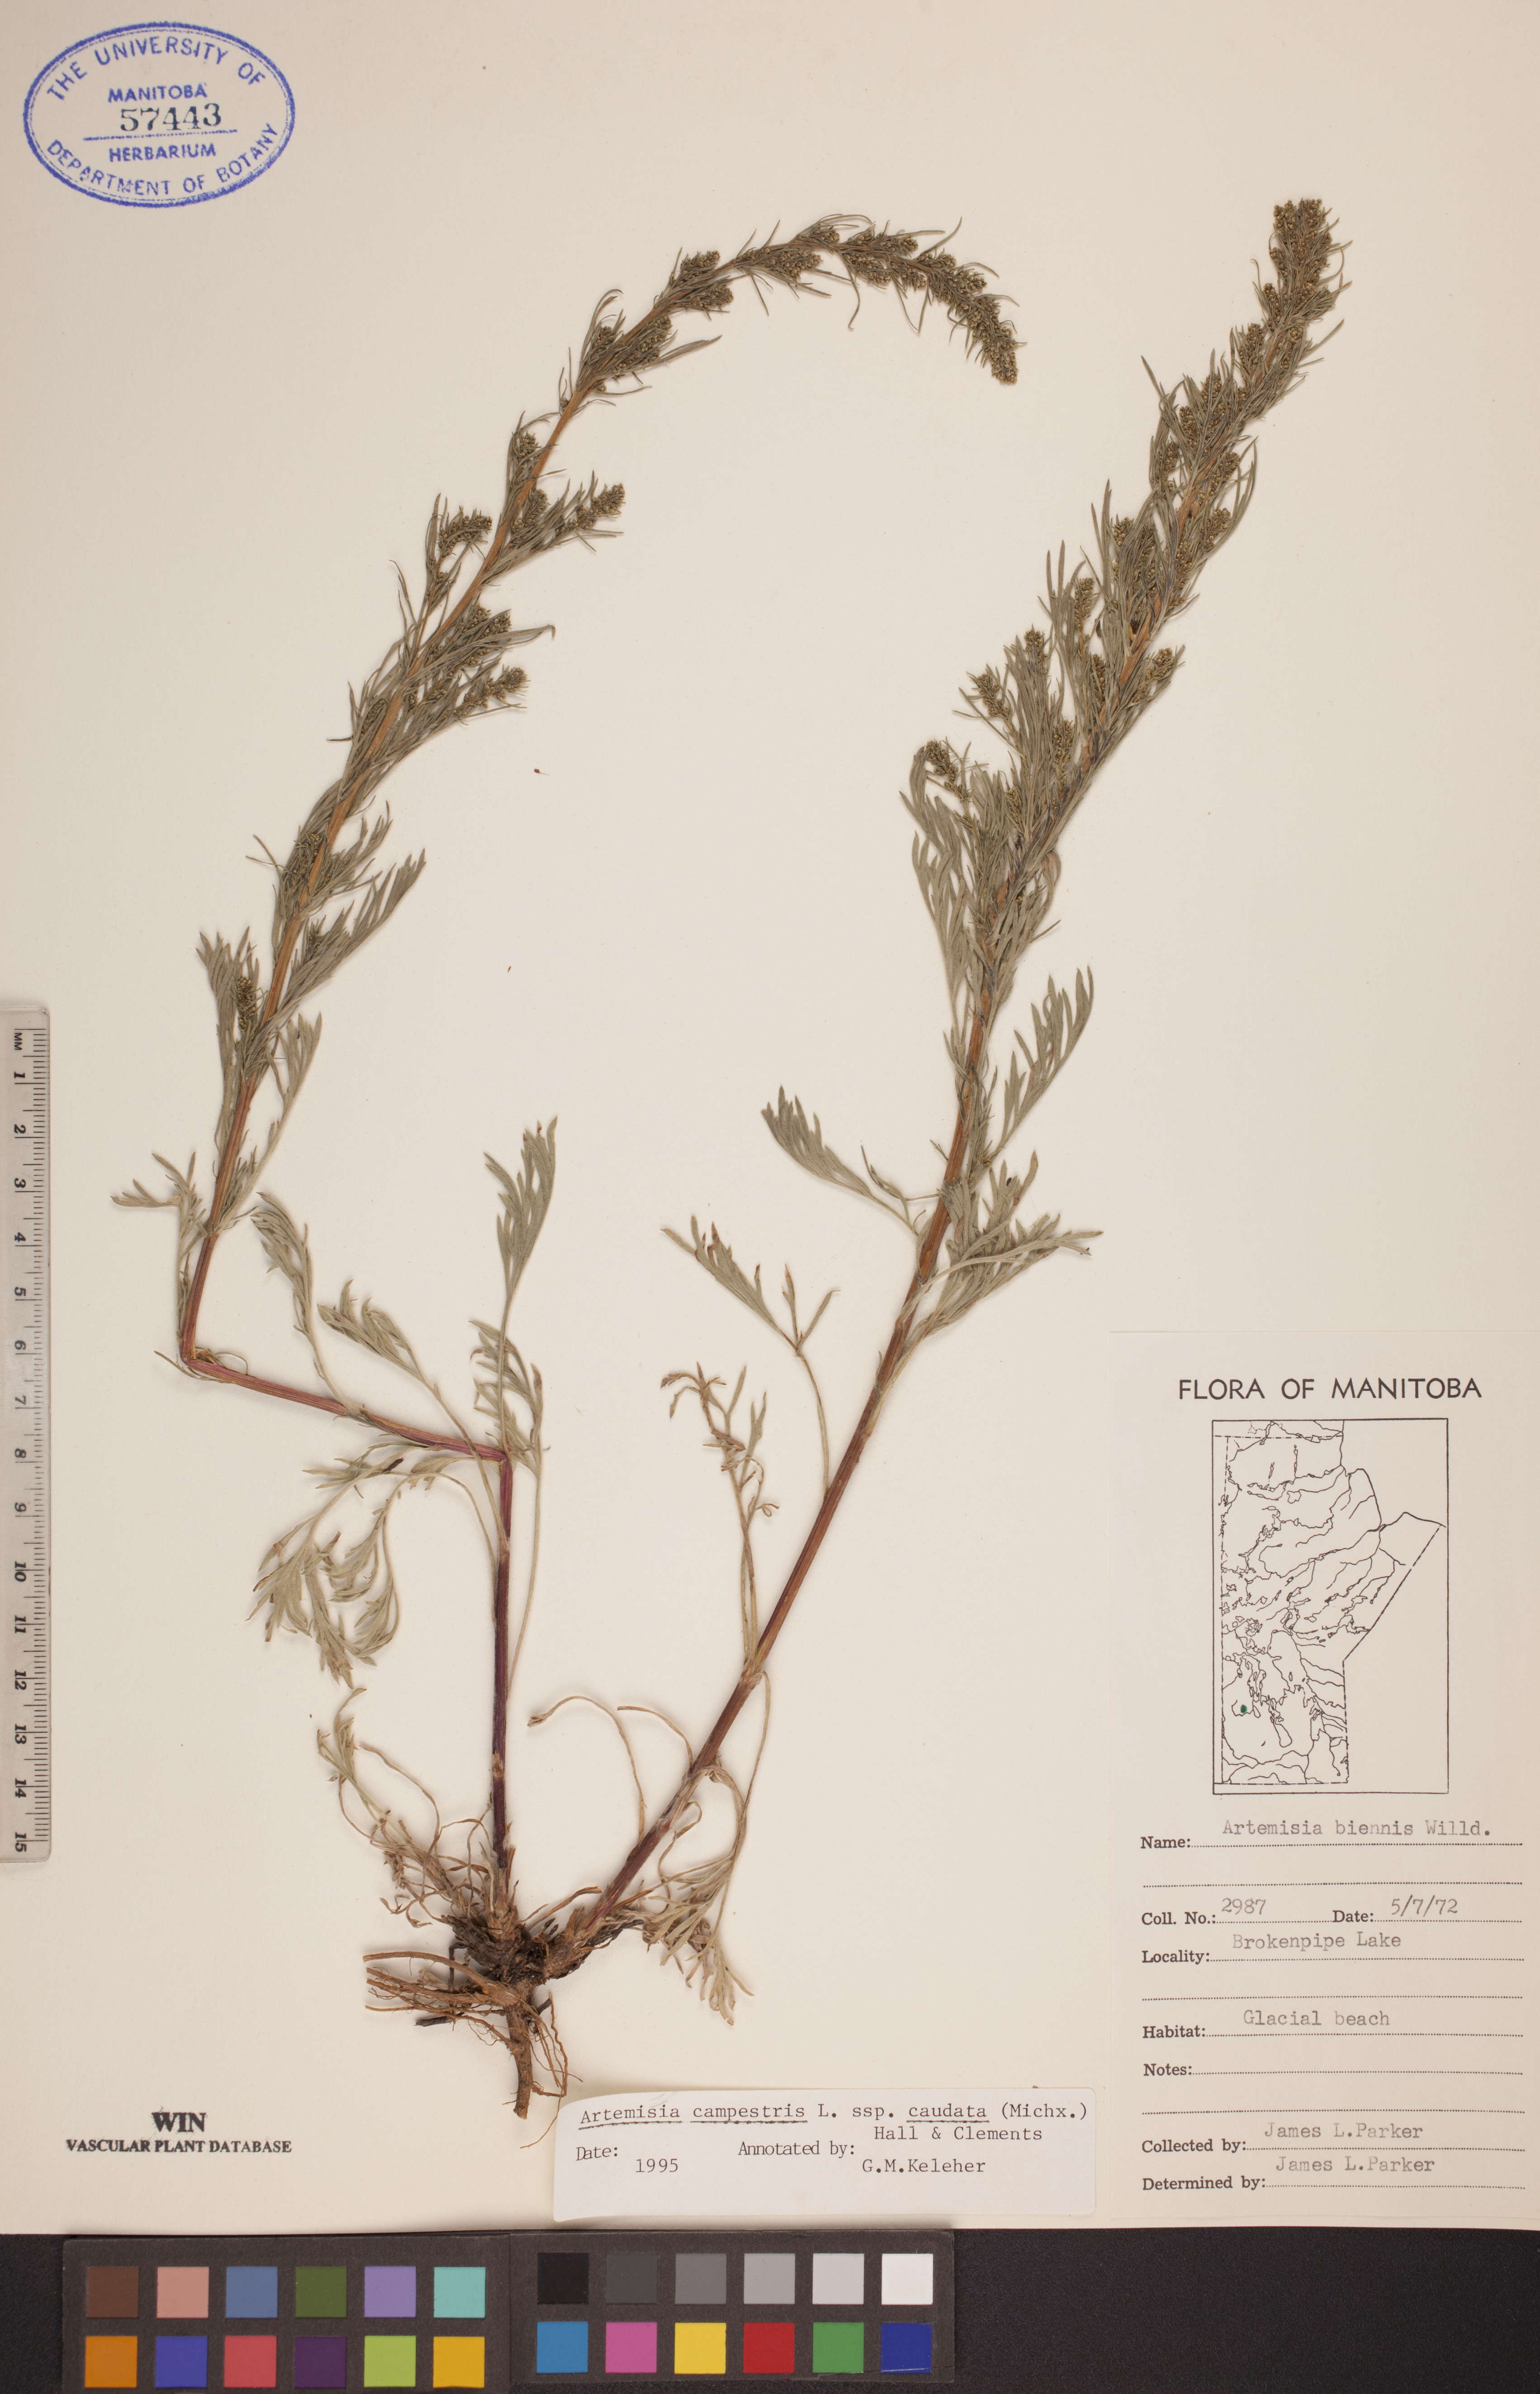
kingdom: Plantae
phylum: Tracheophyta
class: Magnoliopsida
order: Asterales
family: Asteraceae
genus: Artemisia
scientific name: Artemisia campestris
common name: Field wormwood
